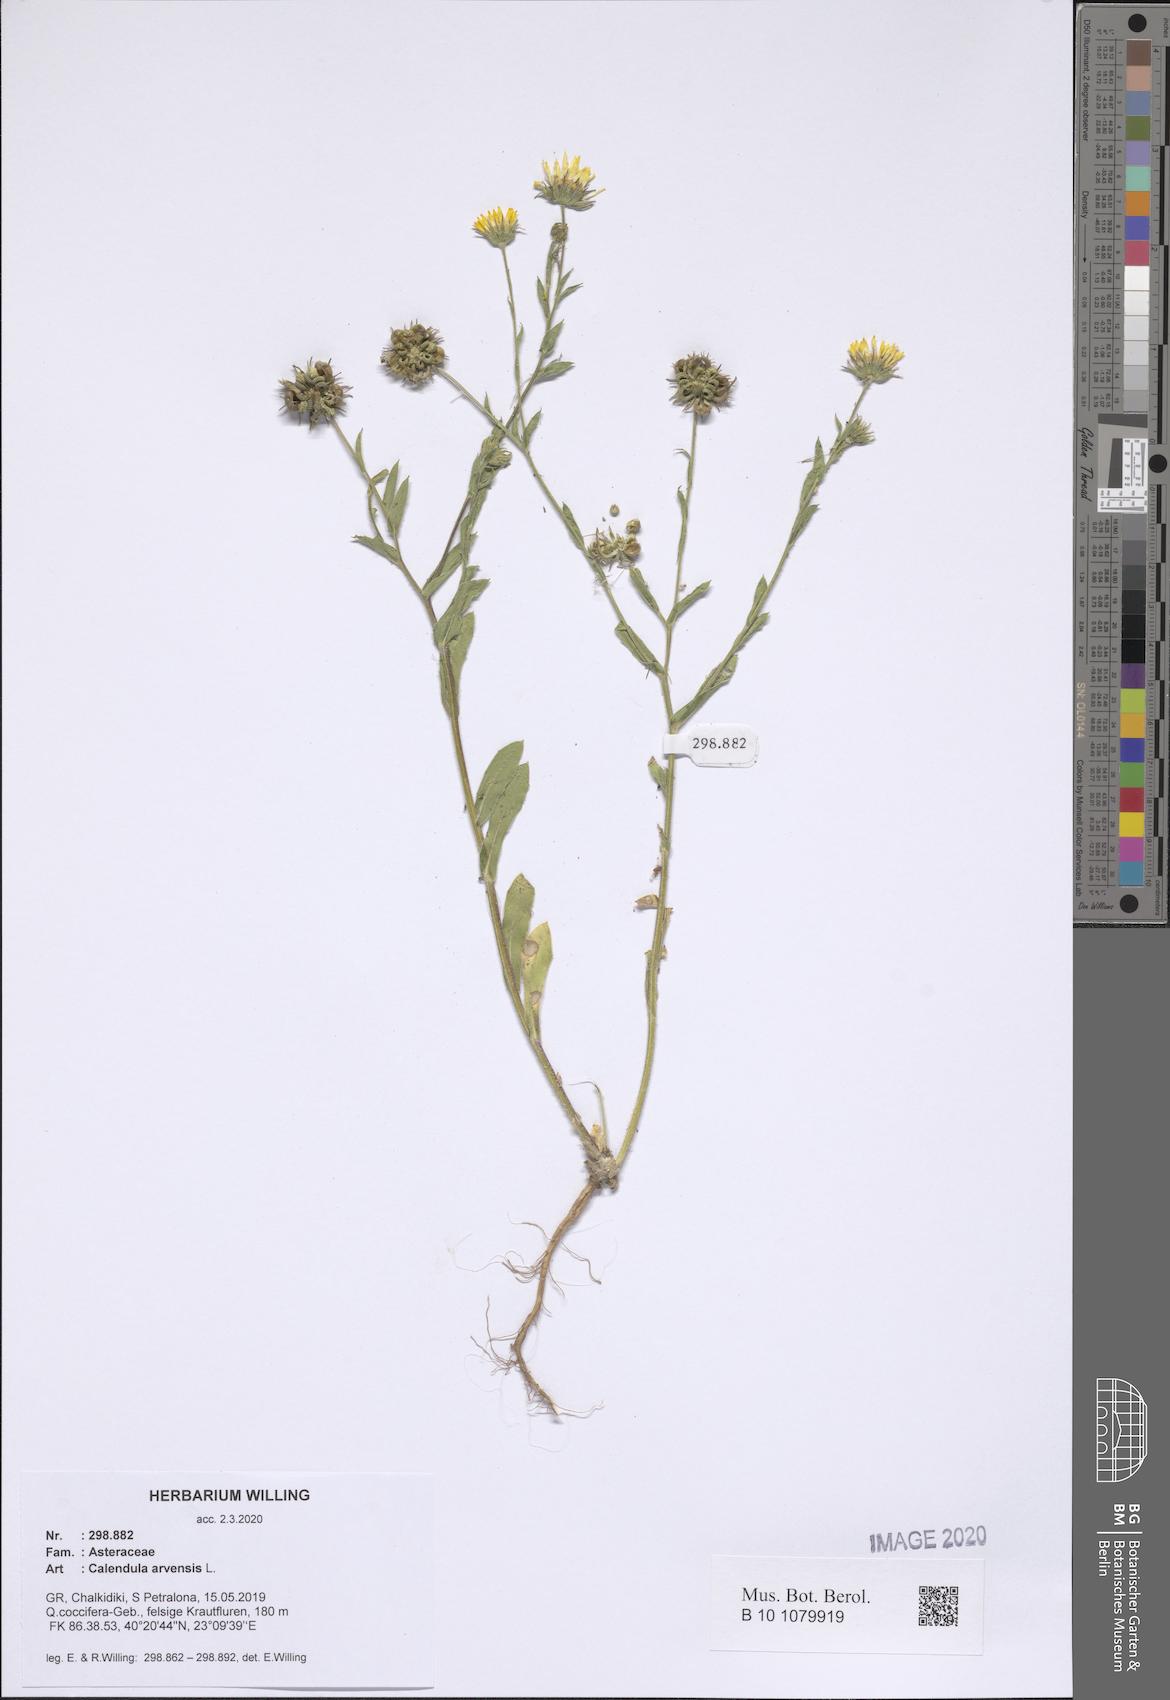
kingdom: Plantae
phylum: Tracheophyta
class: Magnoliopsida
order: Asterales
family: Asteraceae
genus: Calendula
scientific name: Calendula arvensis
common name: Field marigold
